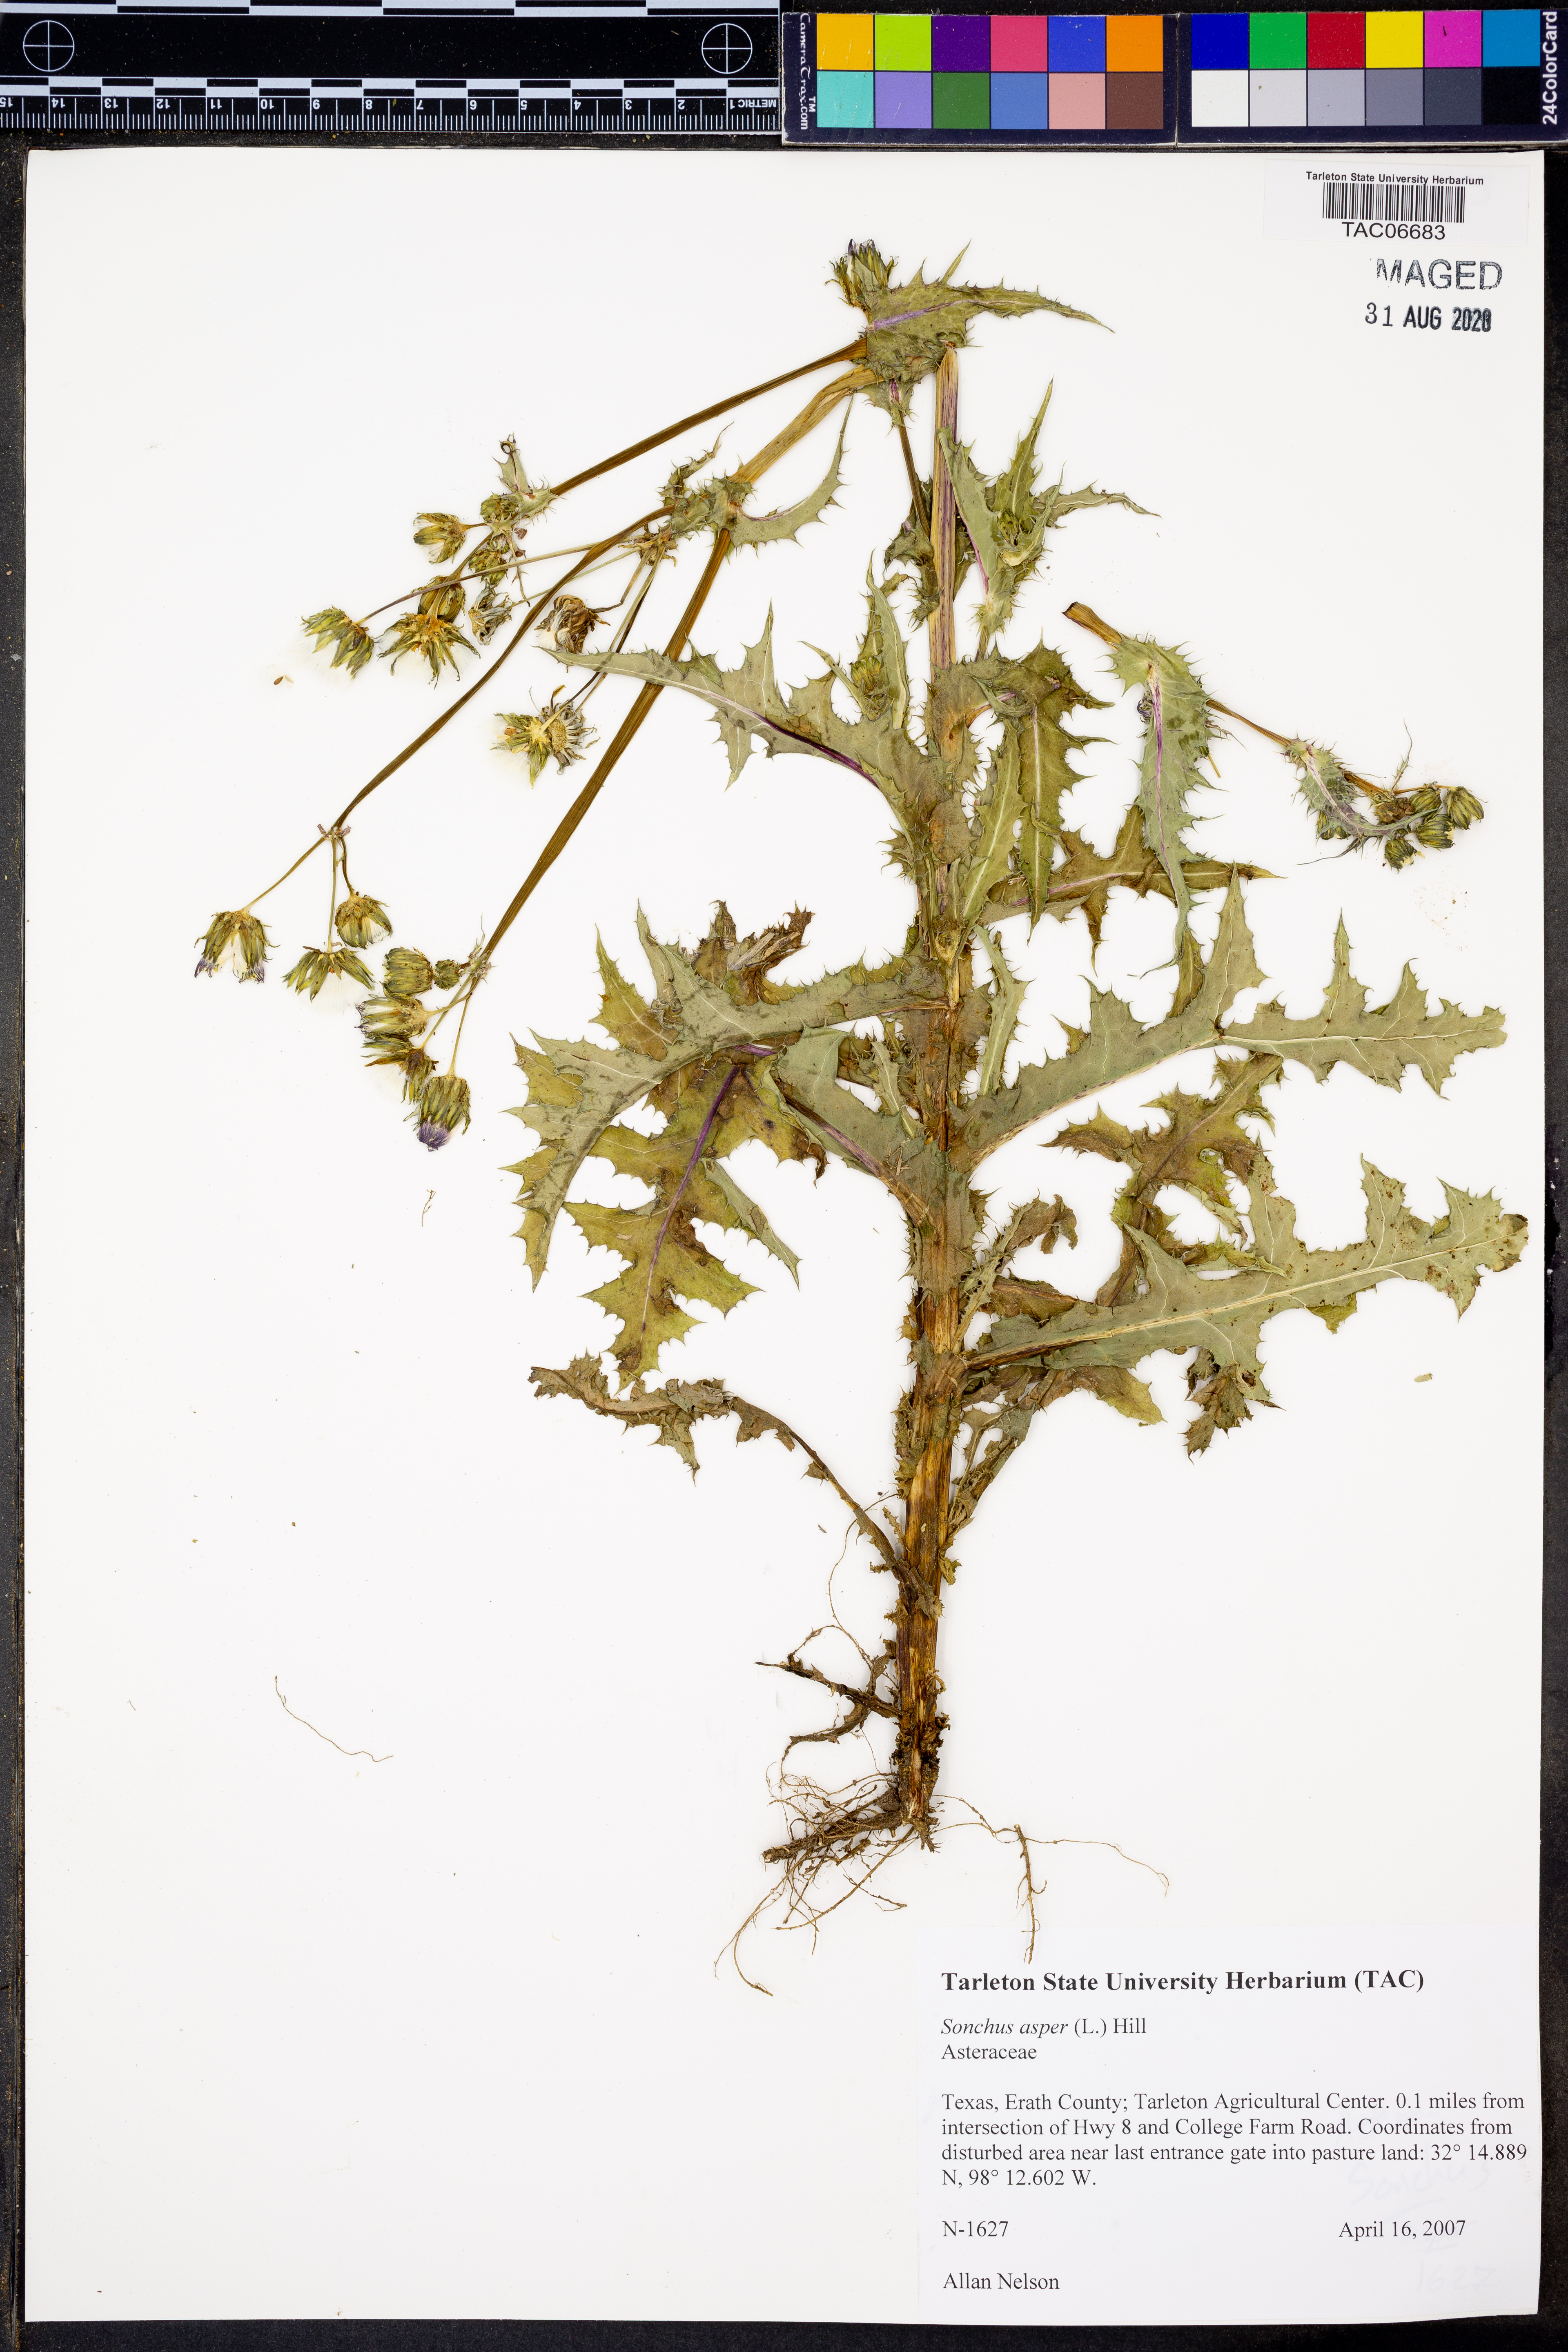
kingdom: Plantae
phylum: Tracheophyta
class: Magnoliopsida
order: Asterales
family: Asteraceae
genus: Sonchus
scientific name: Sonchus asper
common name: Prickly sow-thistle
